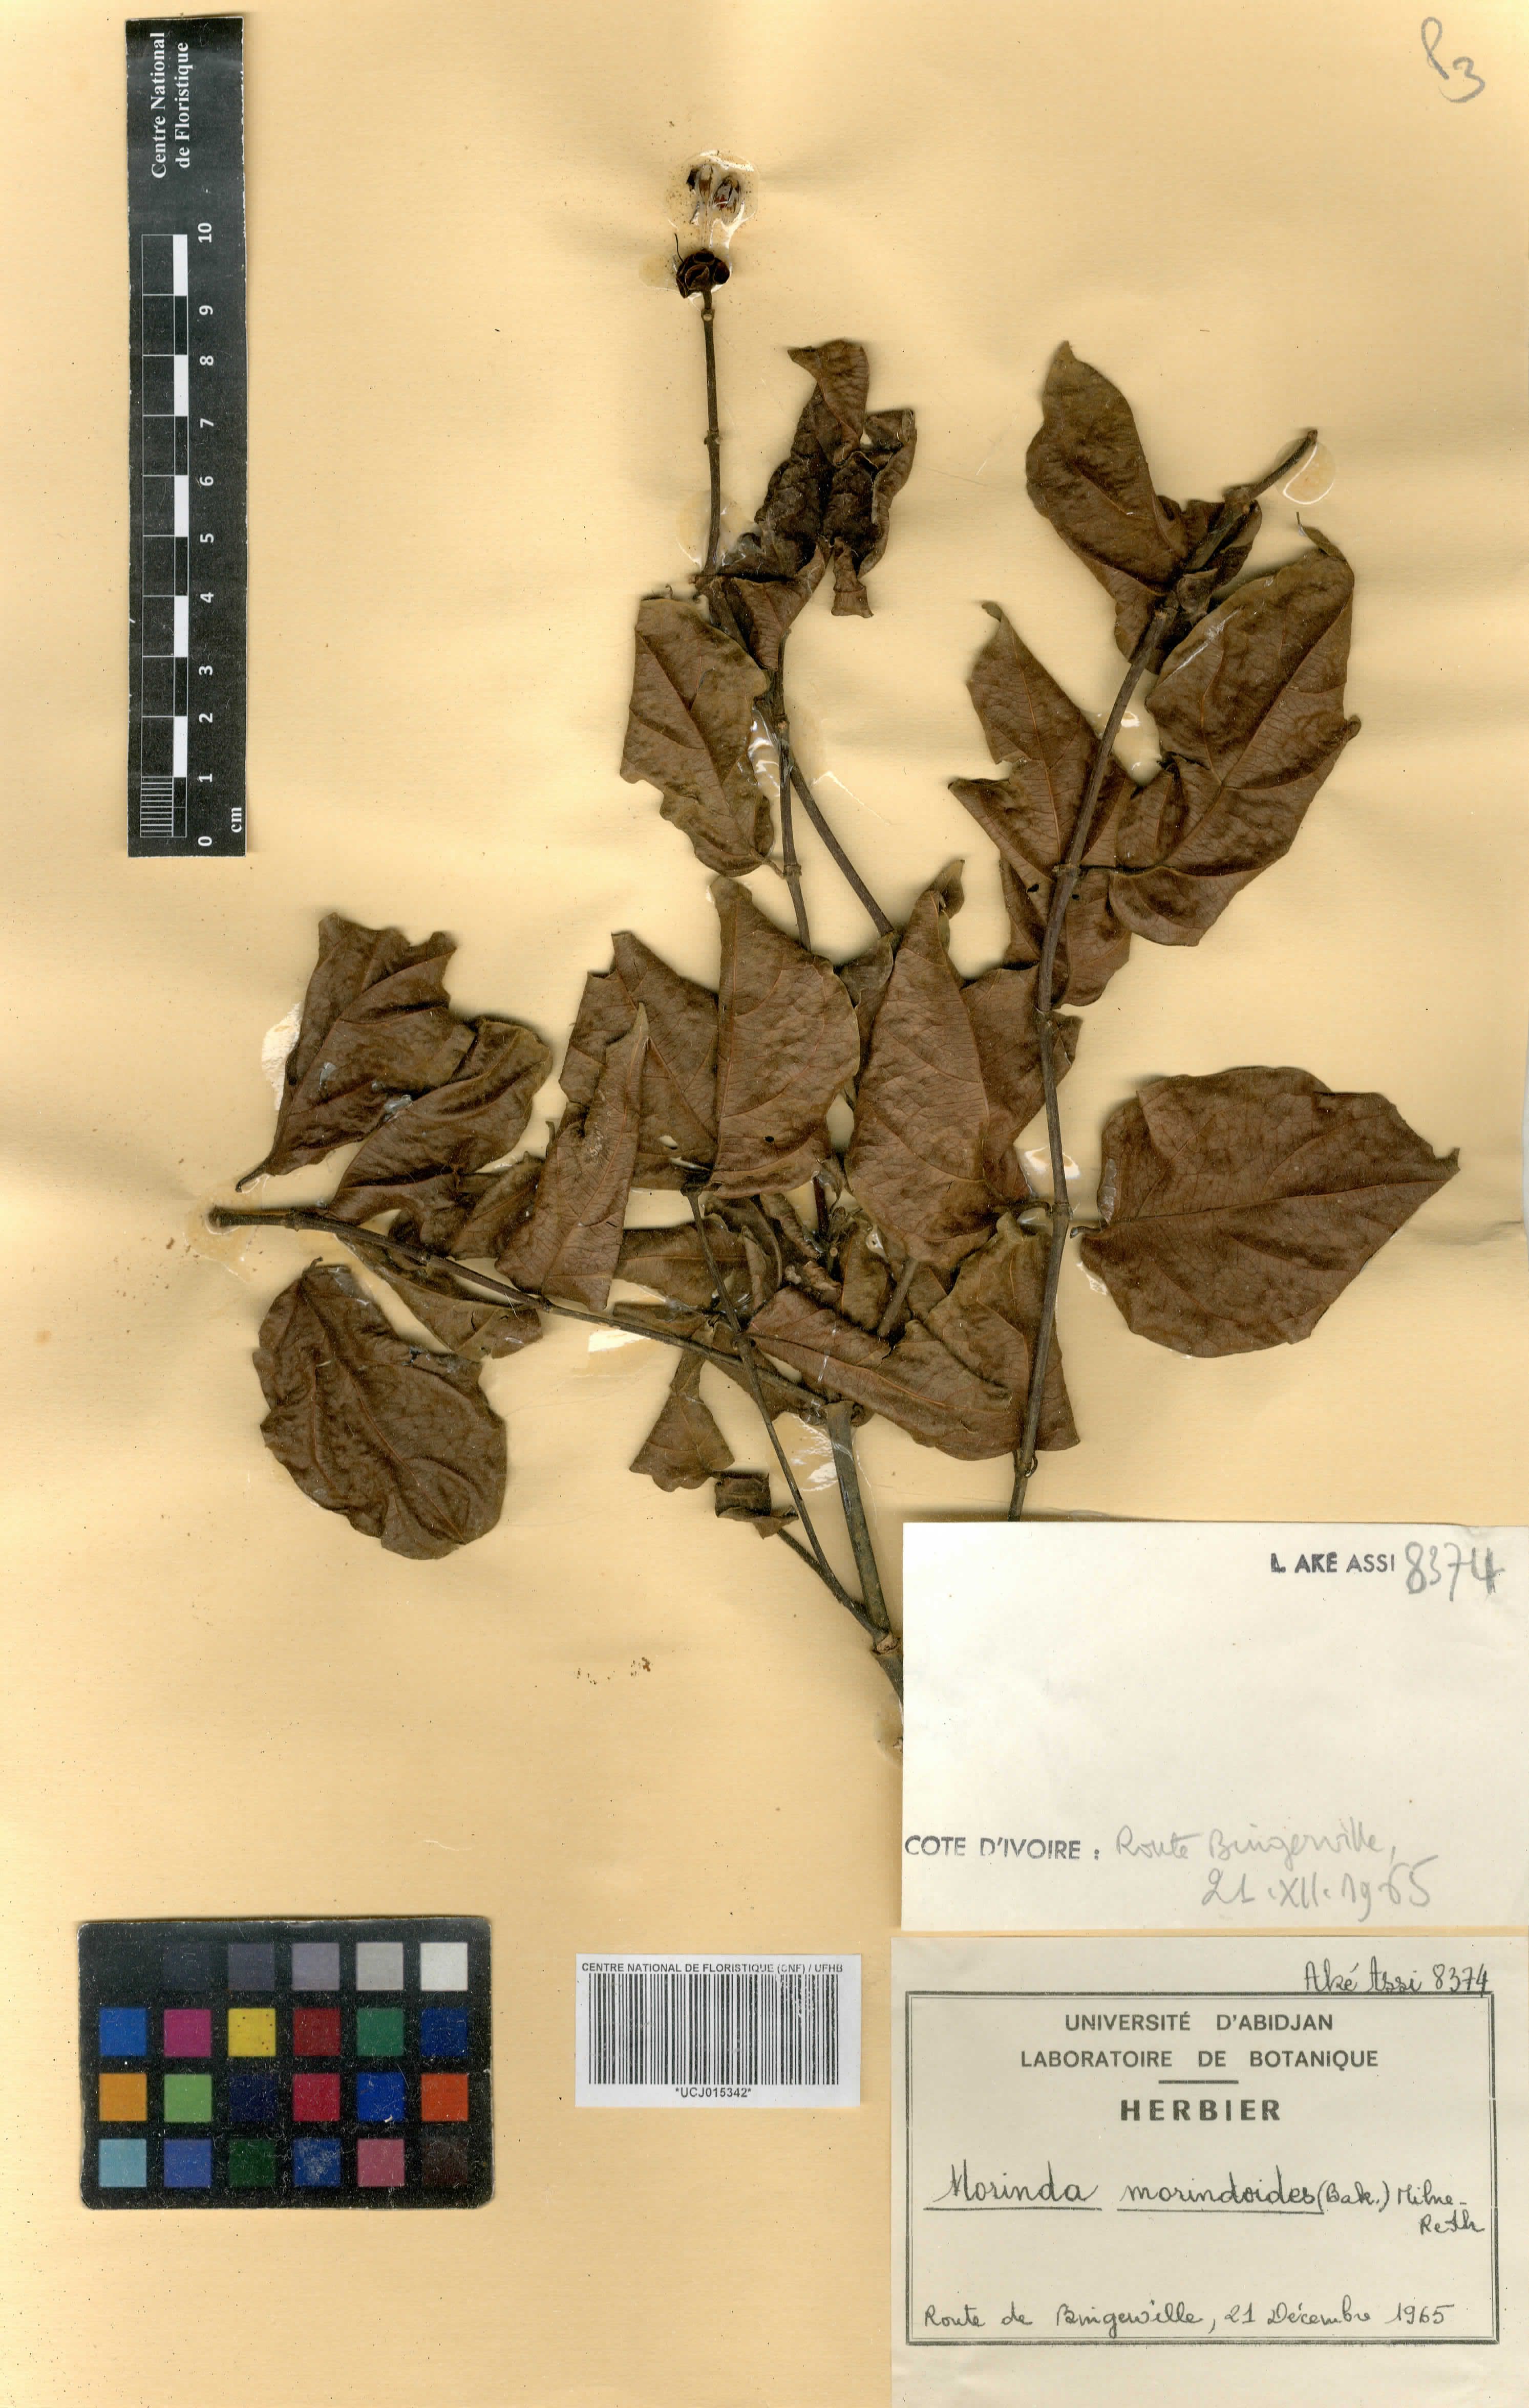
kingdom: Plantae
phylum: Tracheophyta
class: Magnoliopsida
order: Gentianales
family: Rubiaceae
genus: Morinda
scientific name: Morinda morindoides
